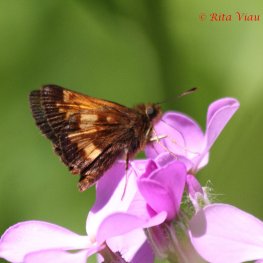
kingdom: Animalia
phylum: Arthropoda
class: Insecta
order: Lepidoptera
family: Hesperiidae
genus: Lon
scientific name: Lon hobomok
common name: Hobomok Skipper
